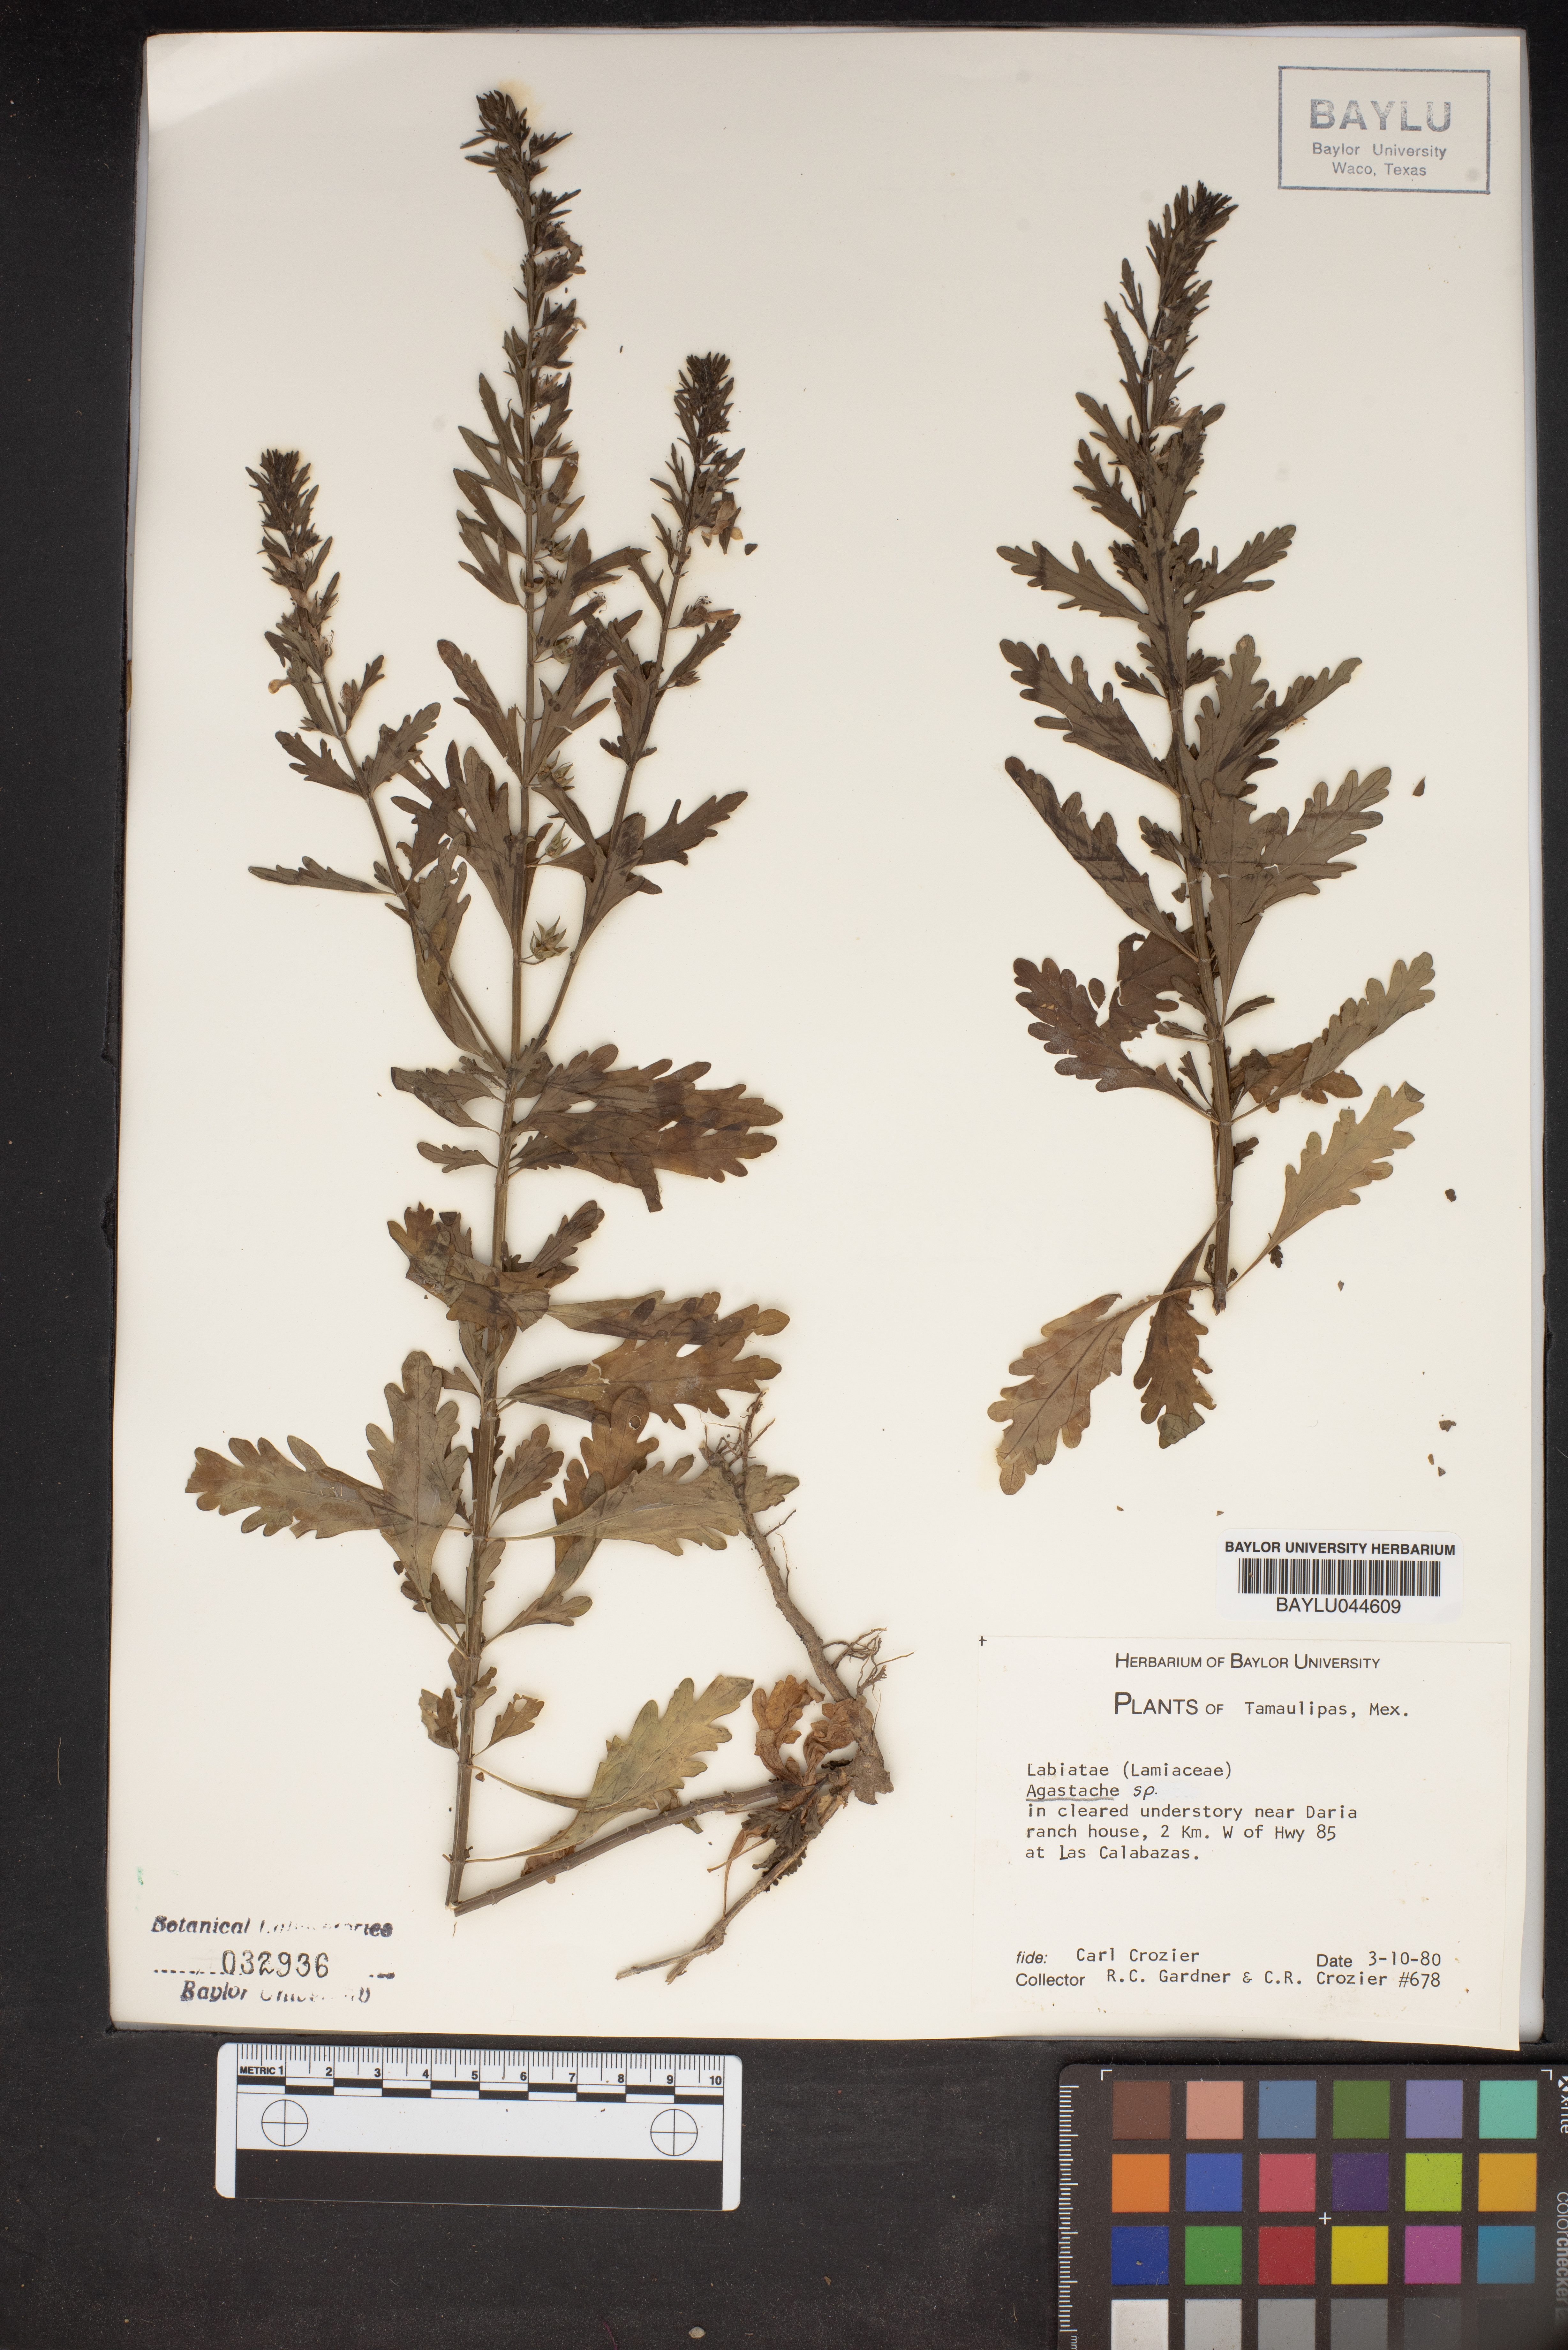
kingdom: Plantae
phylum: Tracheophyta
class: Magnoliopsida
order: Lamiales
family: Lamiaceae
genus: Agastache
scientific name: Agastache
